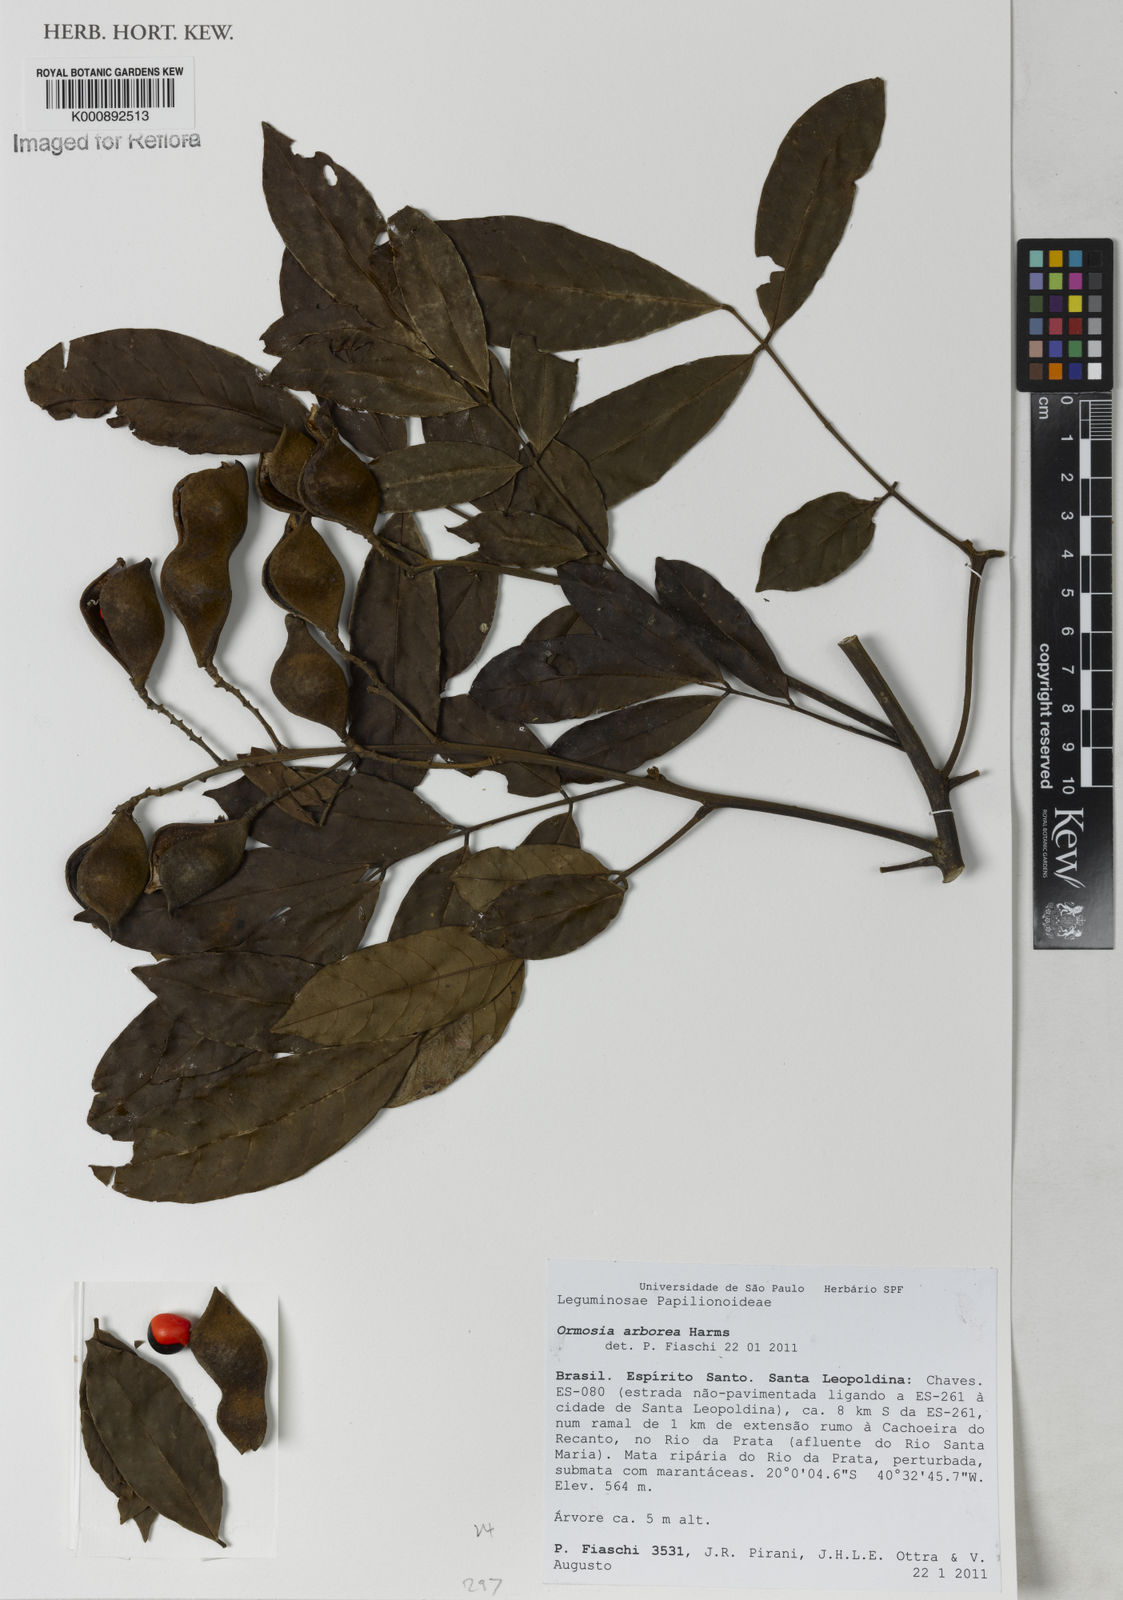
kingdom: Plantae
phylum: Tracheophyta
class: Magnoliopsida
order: Fabales
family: Fabaceae
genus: Ormosia
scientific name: Ormosia arborea
